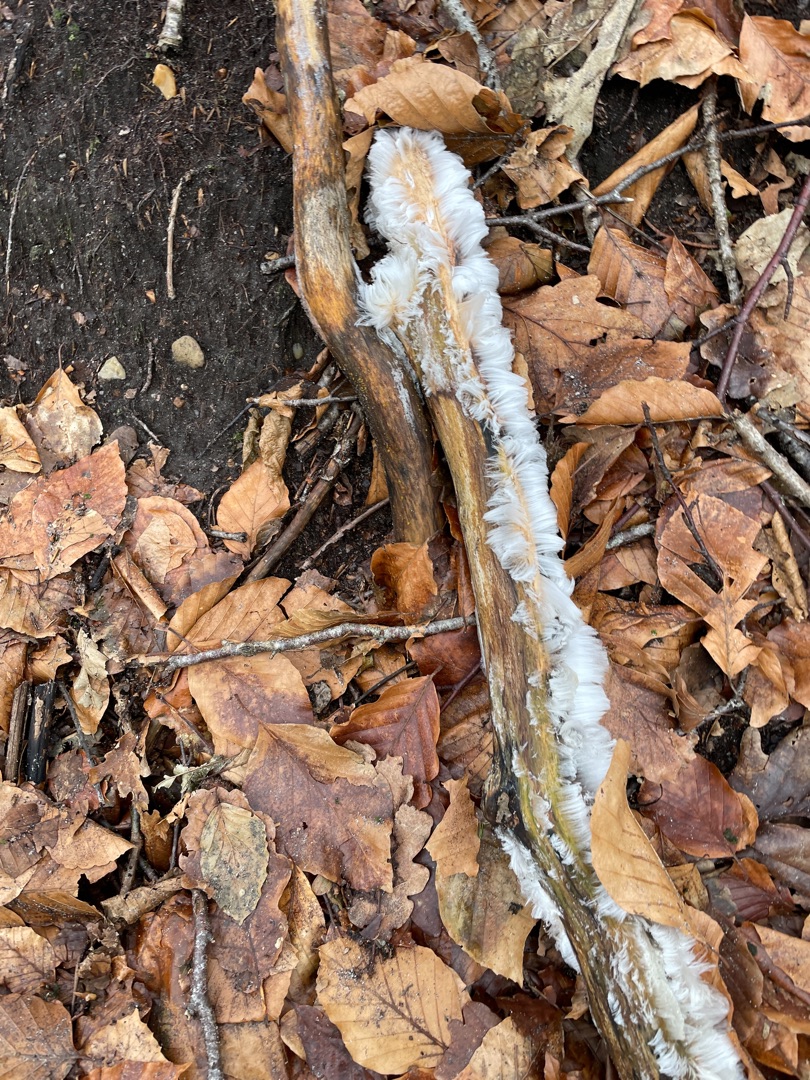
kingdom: Fungi
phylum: Basidiomycota
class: Tremellomycetes
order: Tremellales
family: Exidiaceae
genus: Exidiopsis
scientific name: Exidiopsis effusa
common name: Smuk bævrehinde
